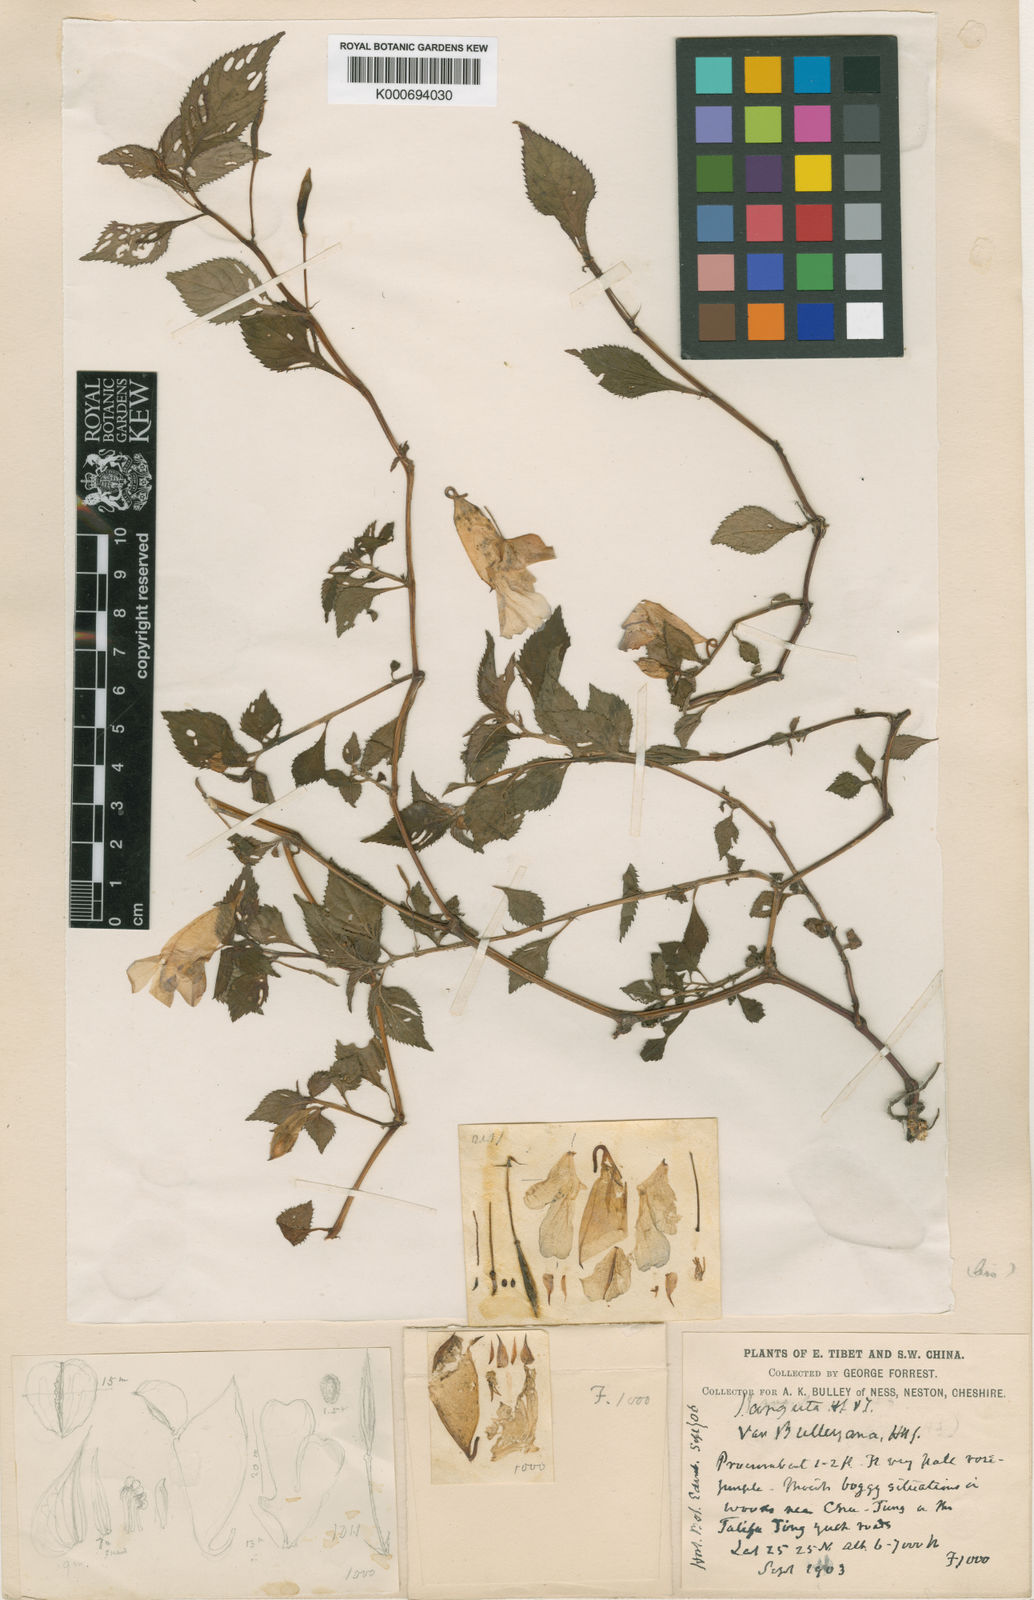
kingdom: Plantae
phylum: Tracheophyta
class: Magnoliopsida
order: Ericales
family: Balsaminaceae
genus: Impatiens
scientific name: Impatiens arguta
